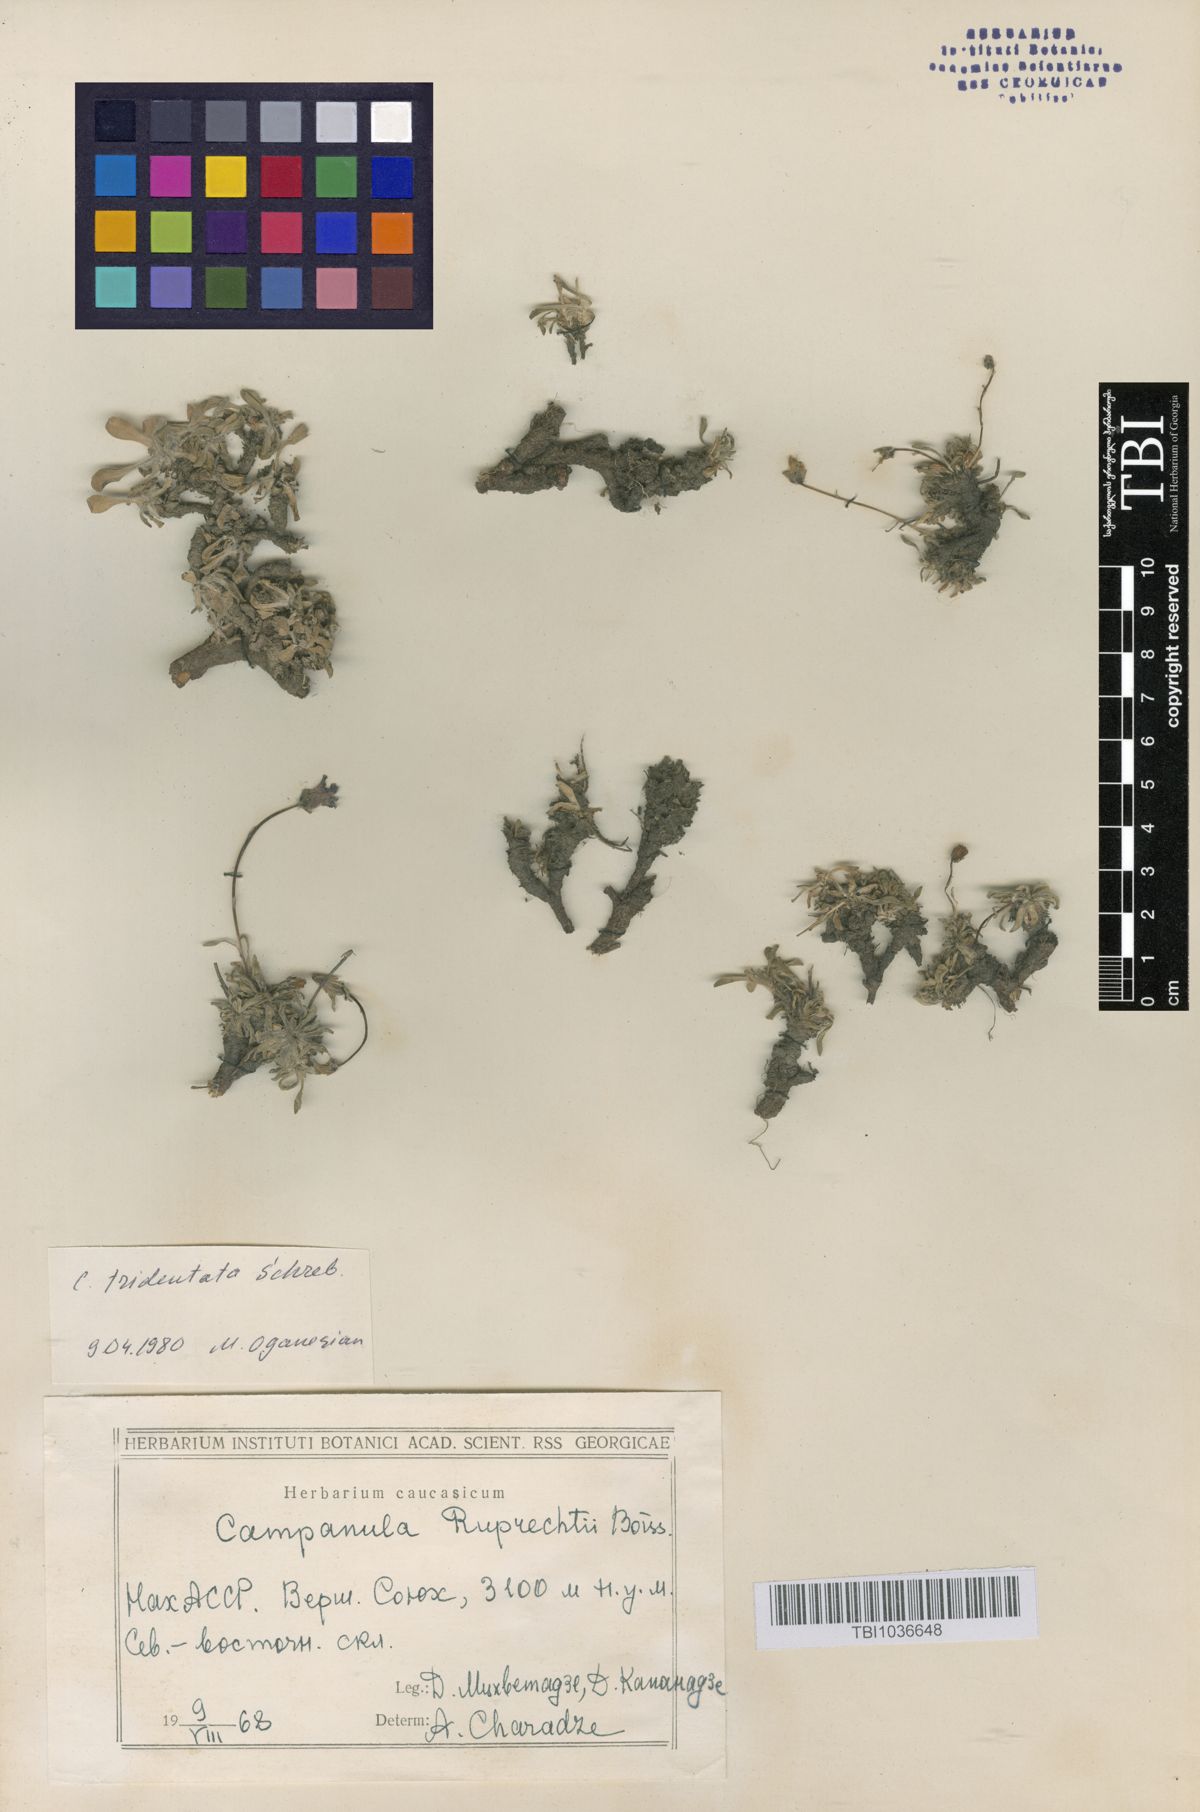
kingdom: Plantae
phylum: Tracheophyta
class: Magnoliopsida
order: Asterales
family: Campanulaceae
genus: Campanula
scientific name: Campanula tridentata
